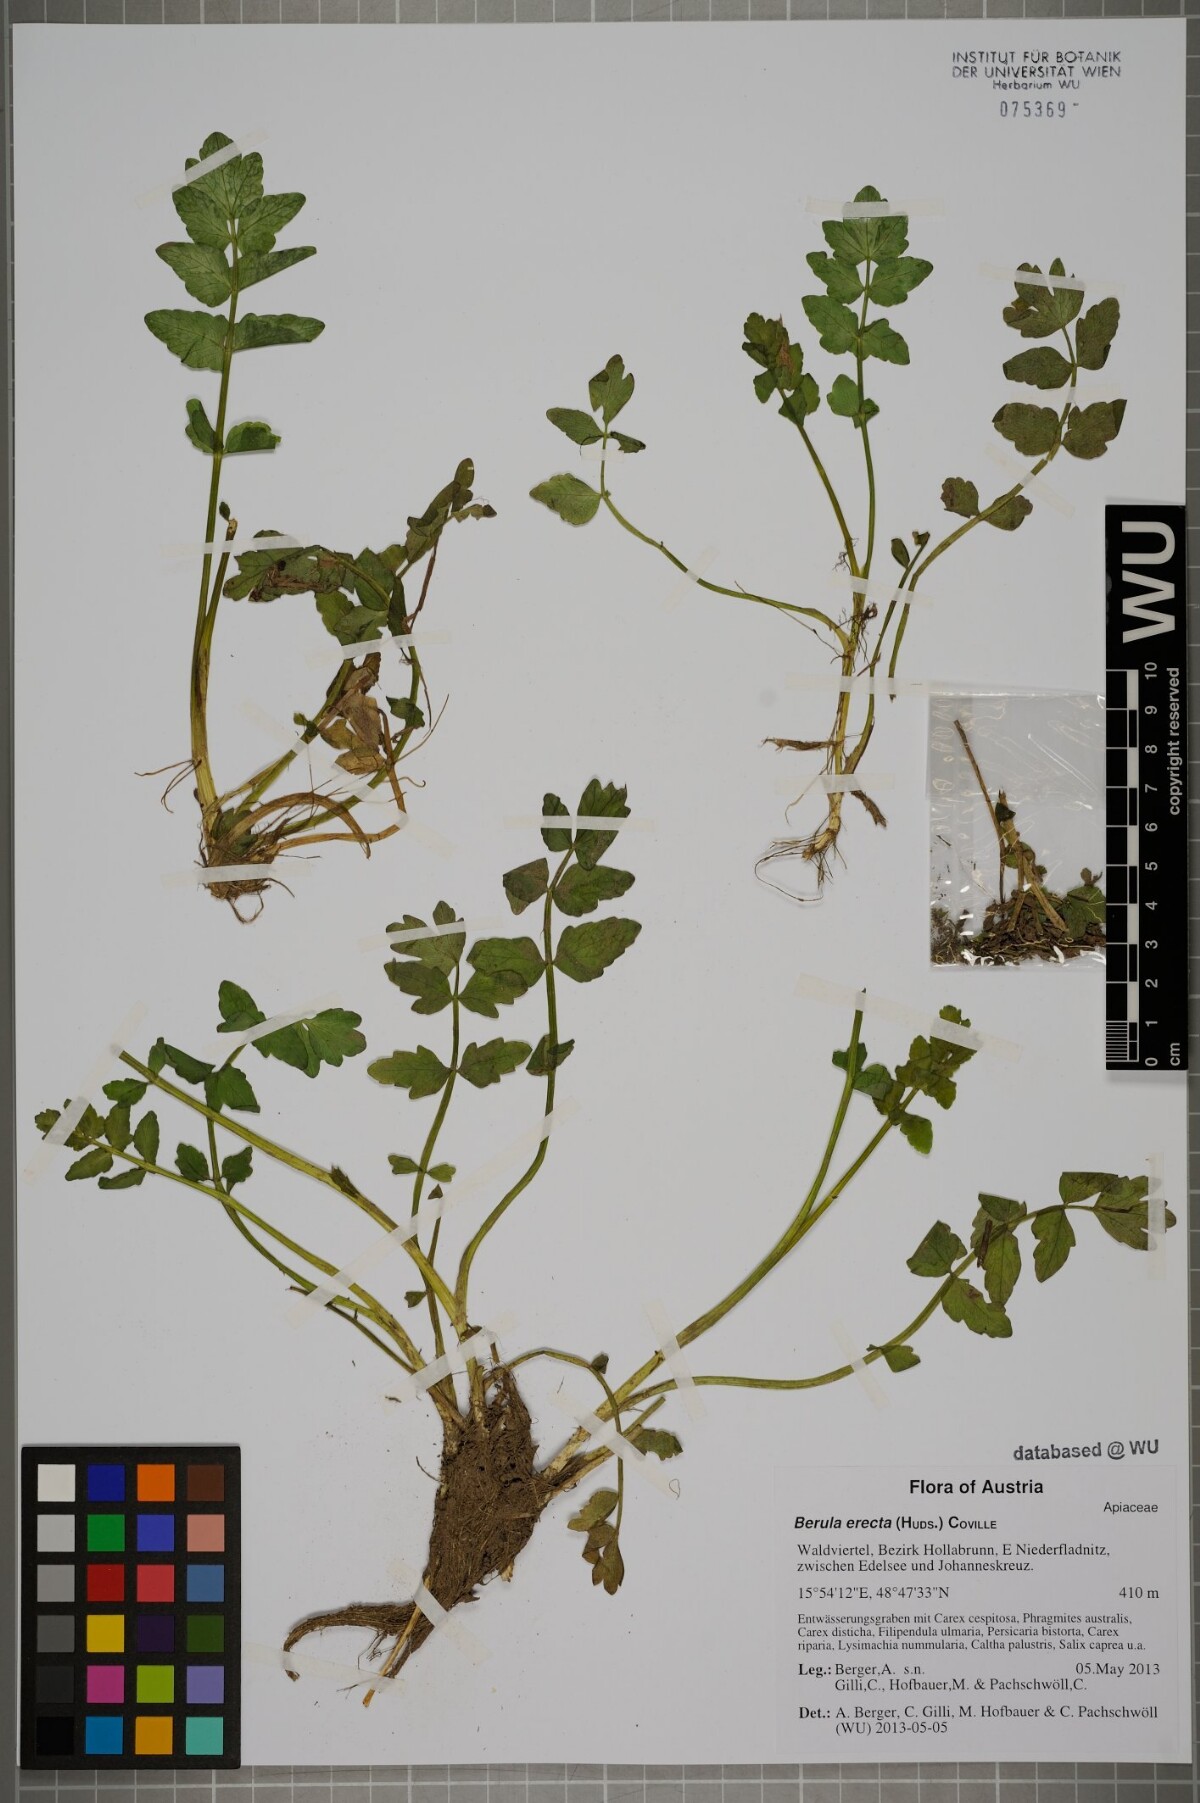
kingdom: Plantae
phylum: Tracheophyta
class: Magnoliopsida
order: Apiales
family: Apiaceae
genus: Berula
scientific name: Berula erecta
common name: Lesser water-parsnip
